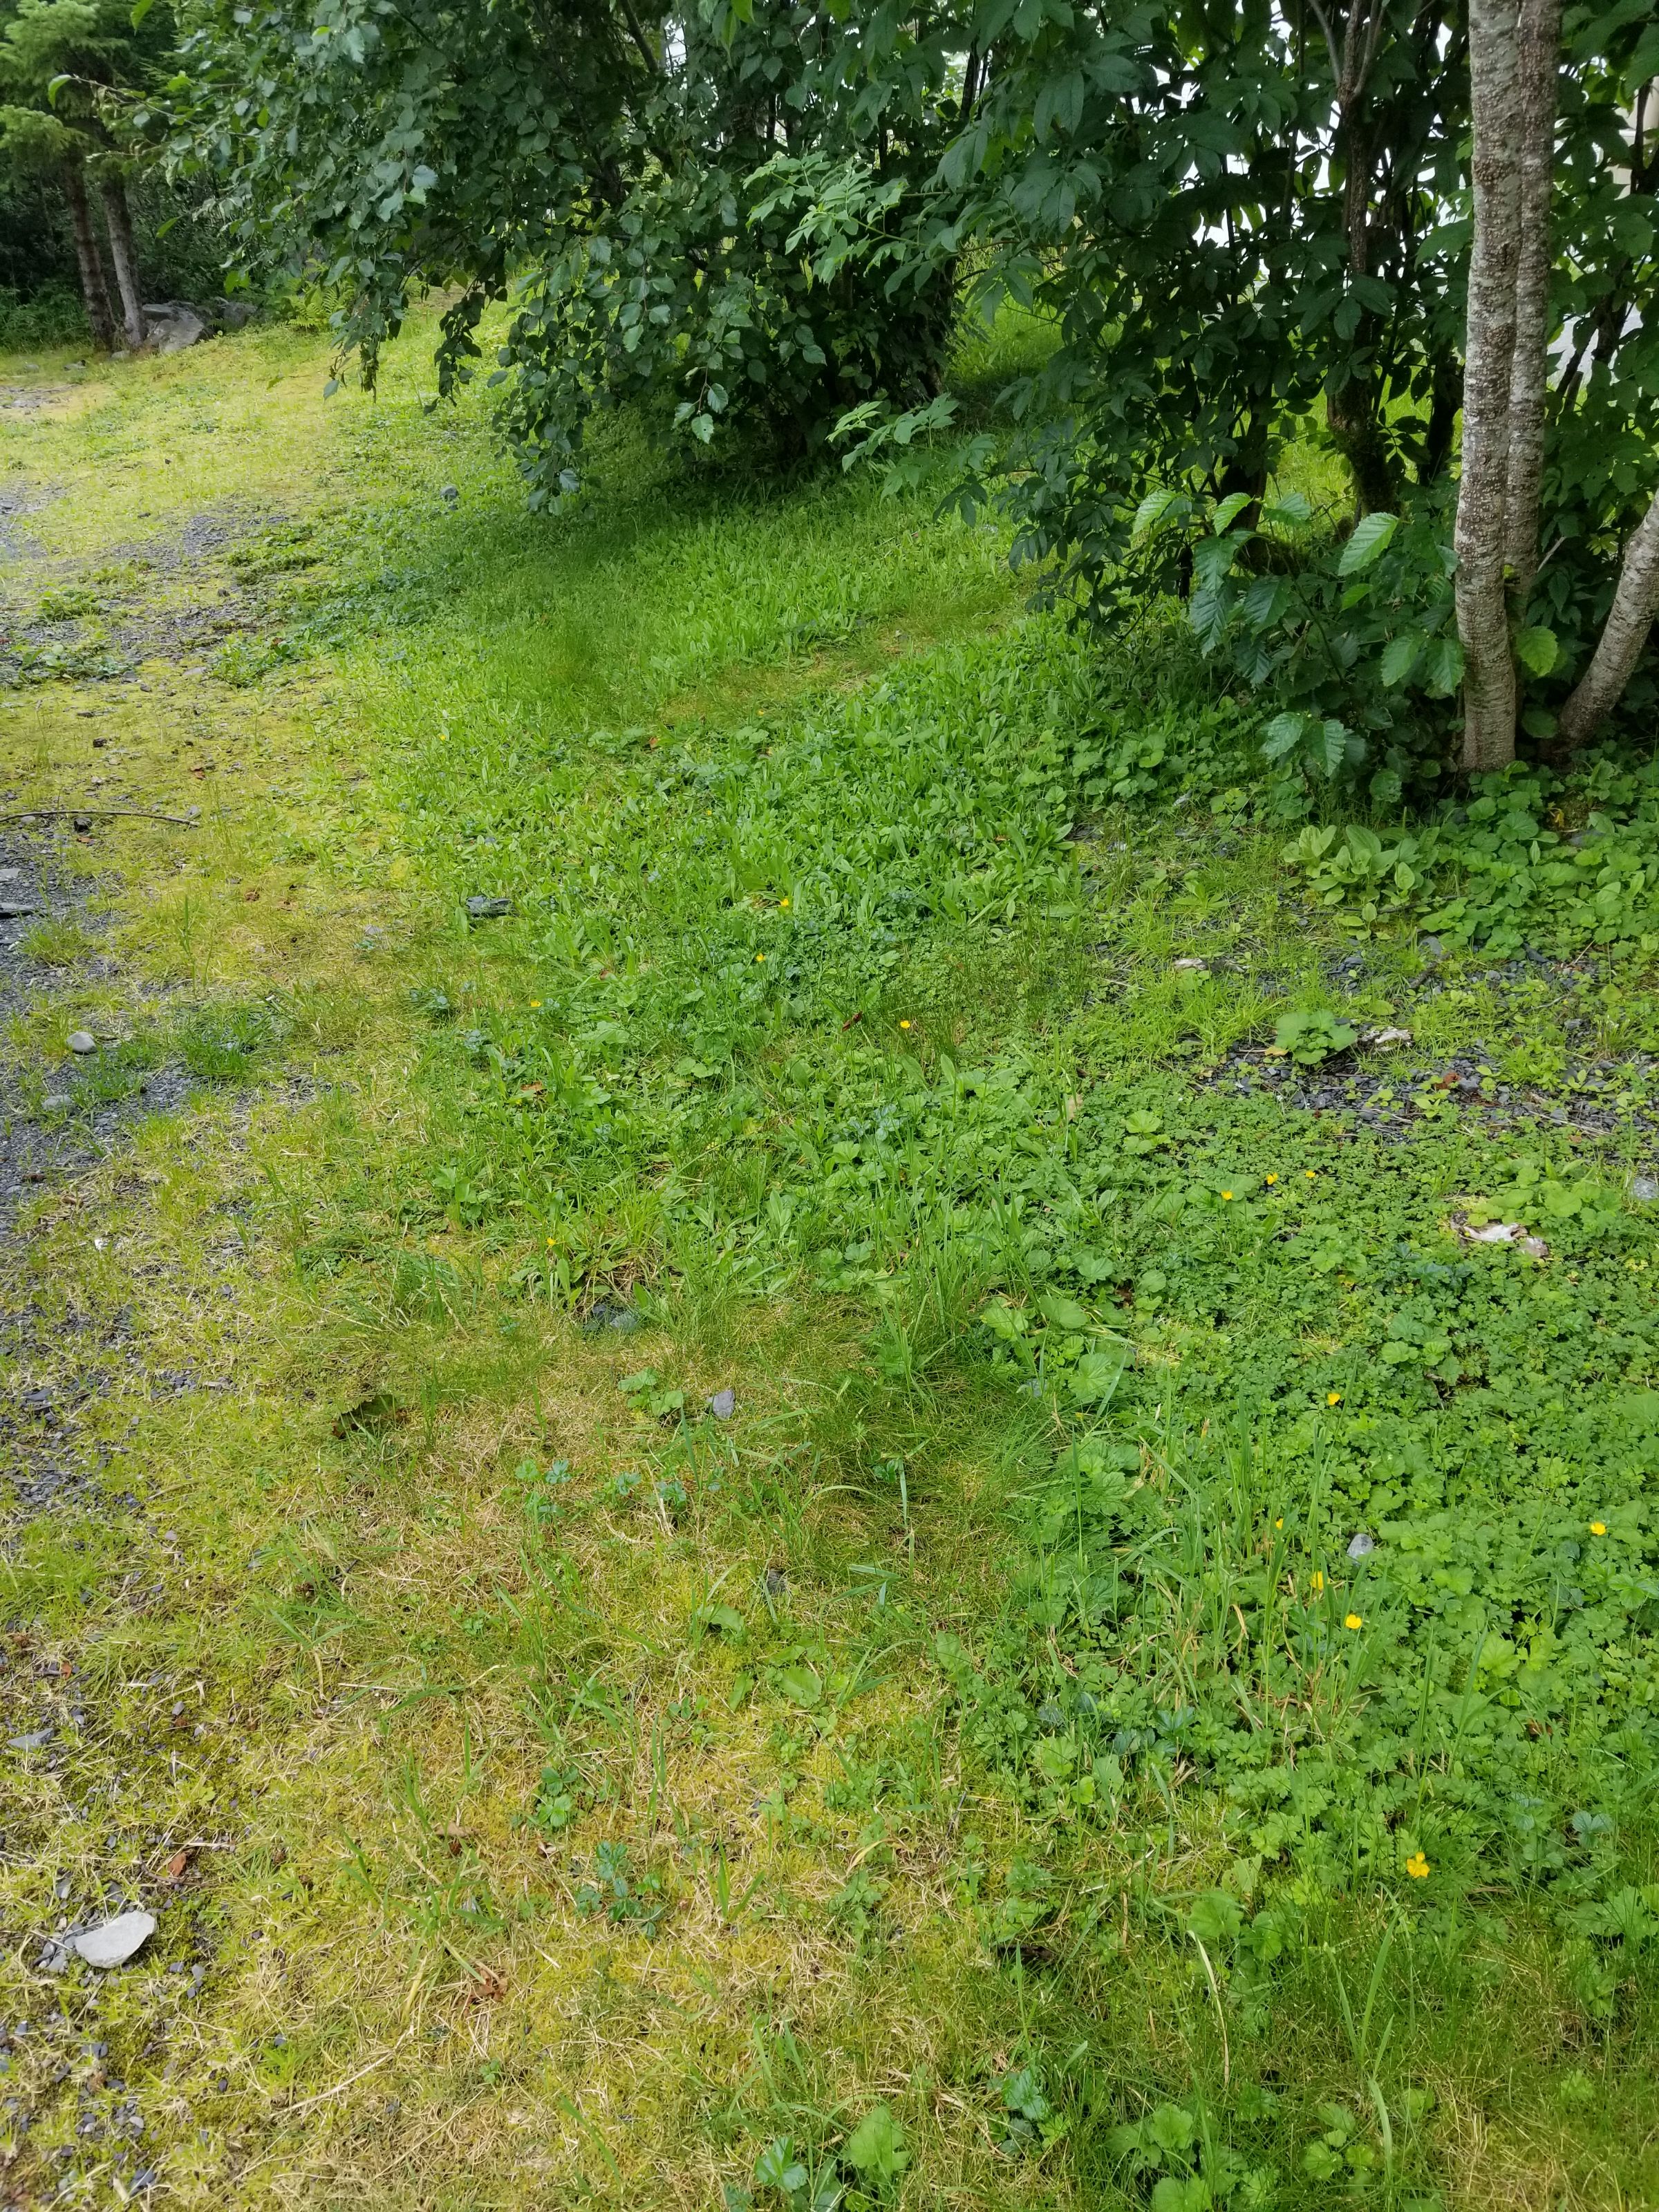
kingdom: Plantae
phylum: Tracheophyta
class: Magnoliopsida
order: Asterales
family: Asteraceae
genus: Pilosella
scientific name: Pilosella aurantiaca
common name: Orange hawkweed
